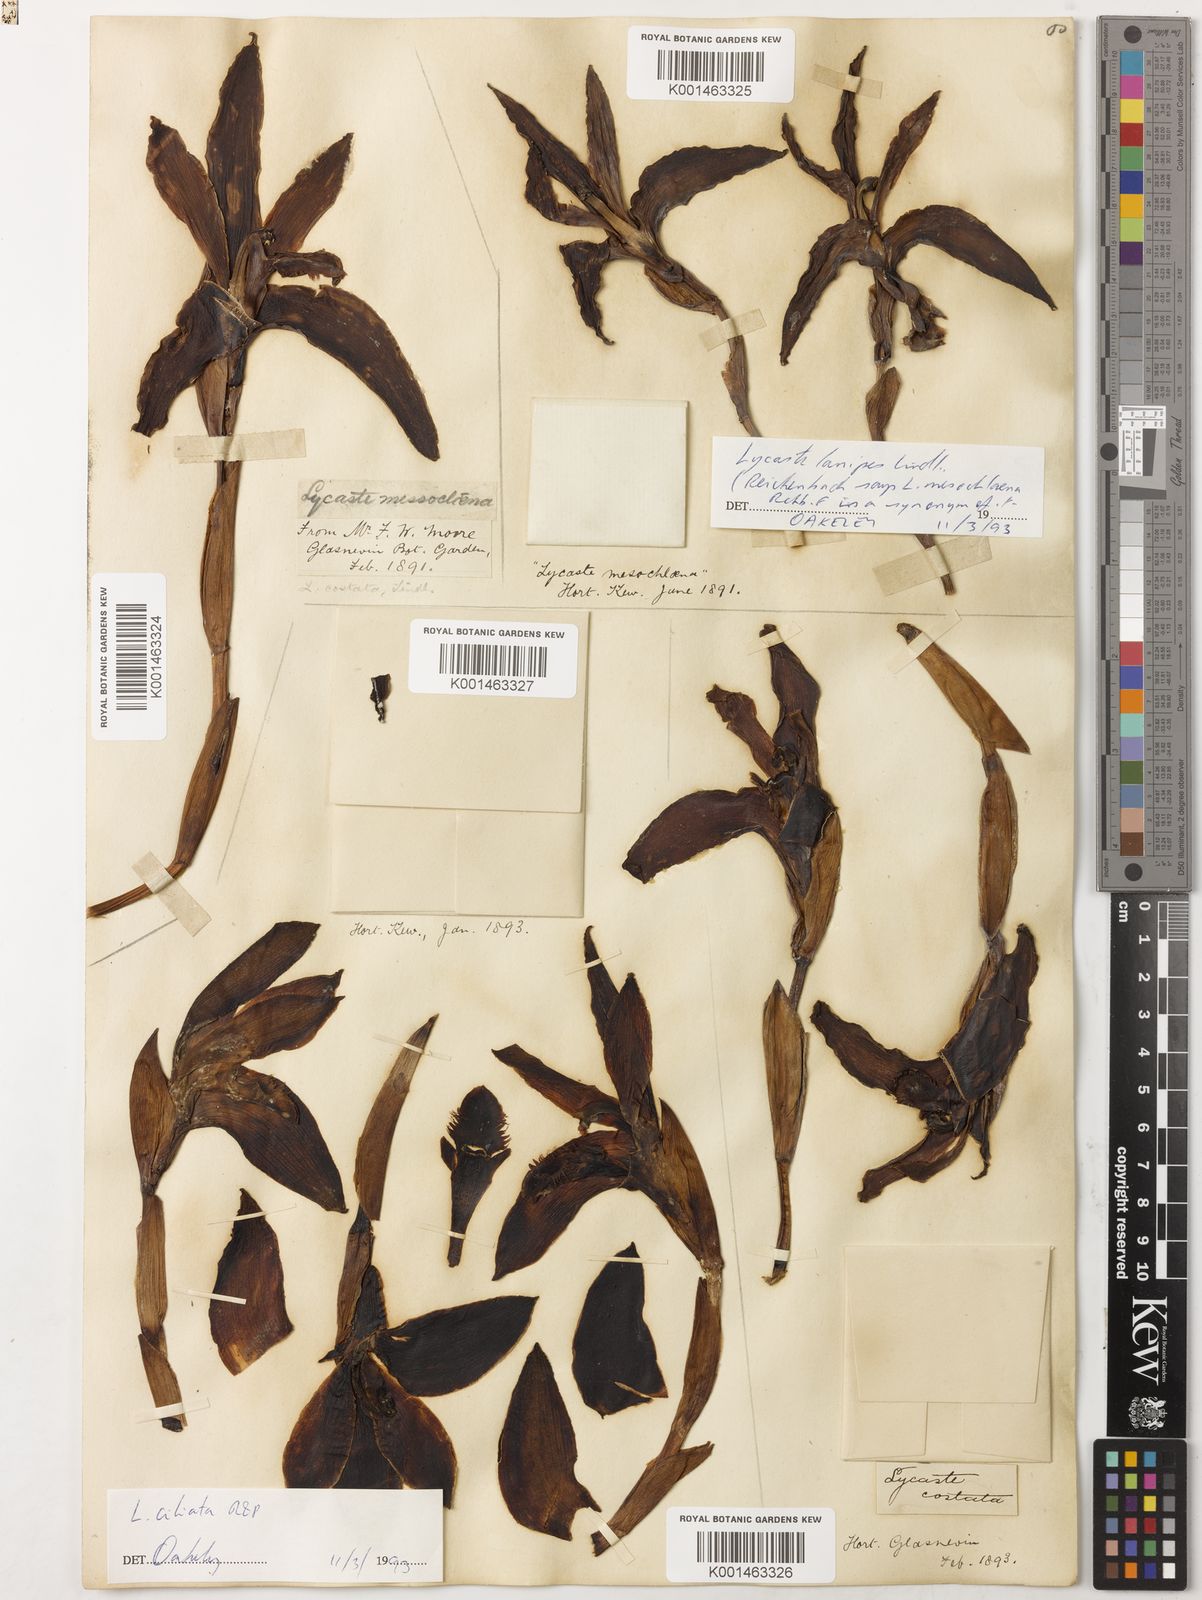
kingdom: Plantae
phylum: Tracheophyta
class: Liliopsida
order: Asparagales
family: Orchidaceae
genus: Ida
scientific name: Ida reichenbachii
